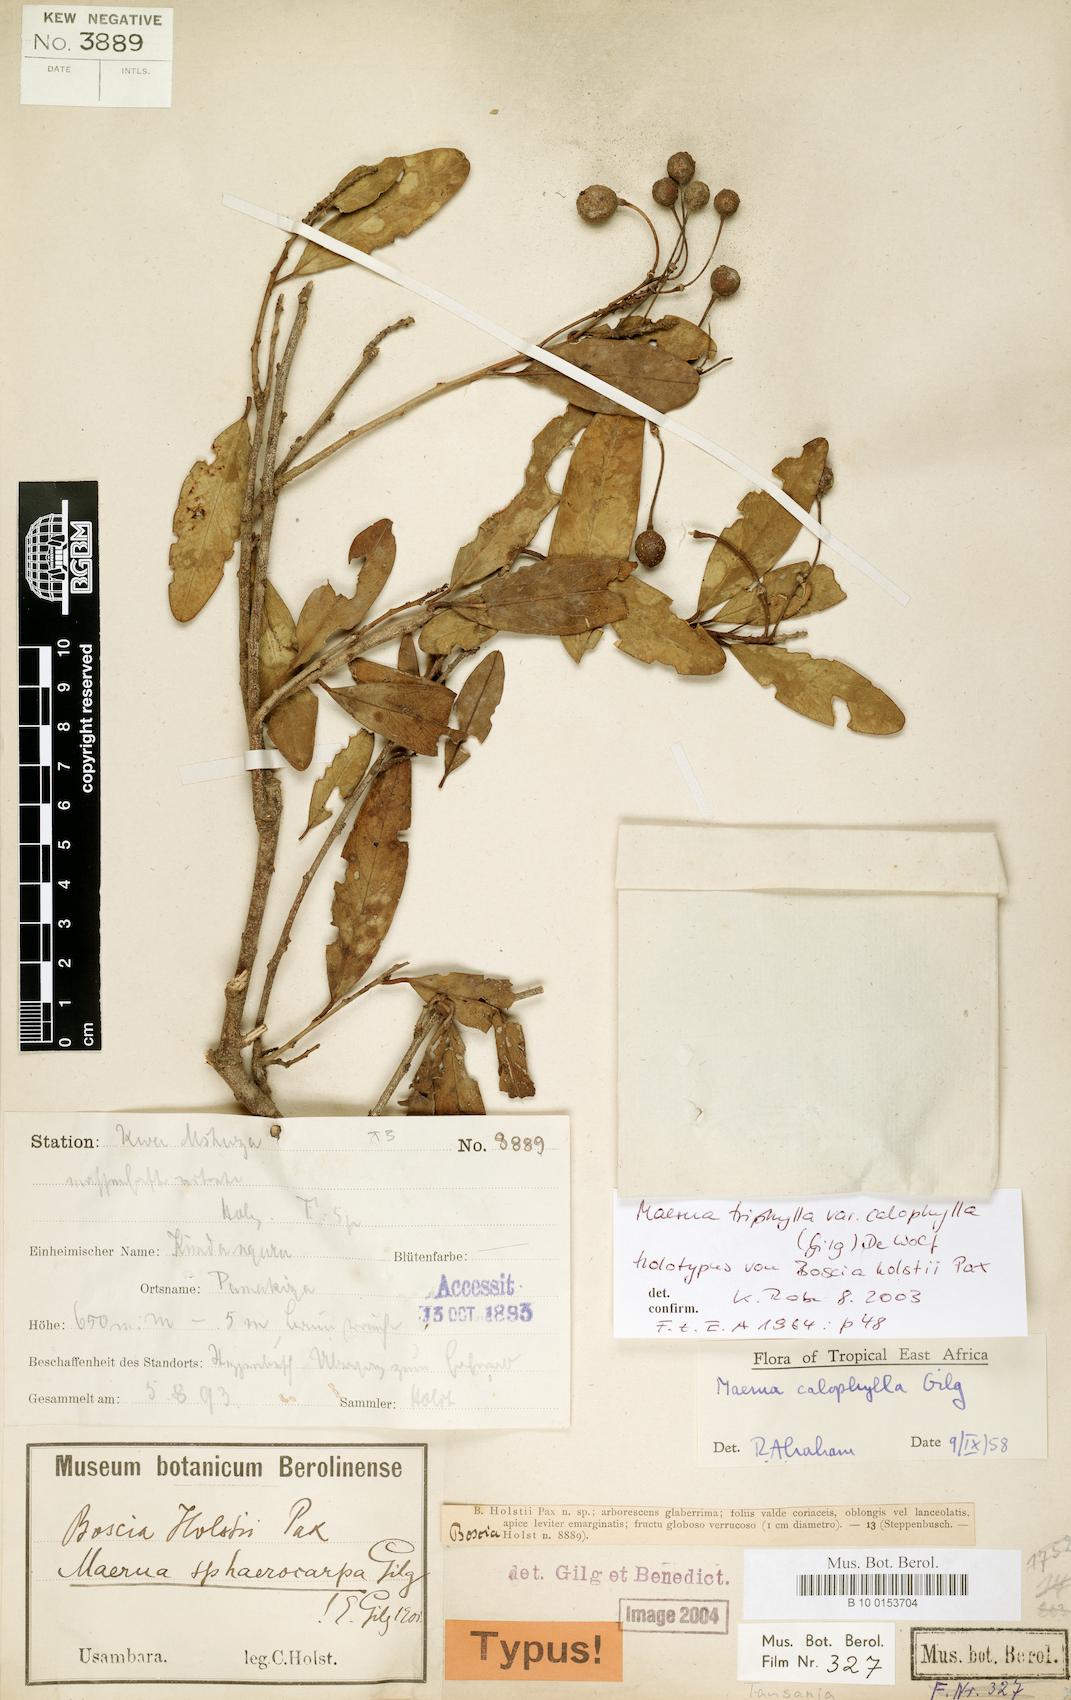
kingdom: Plantae
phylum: Tracheophyta
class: Magnoliopsida
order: Brassicales
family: Capparaceae
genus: Maerua
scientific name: Maerua triphylla
